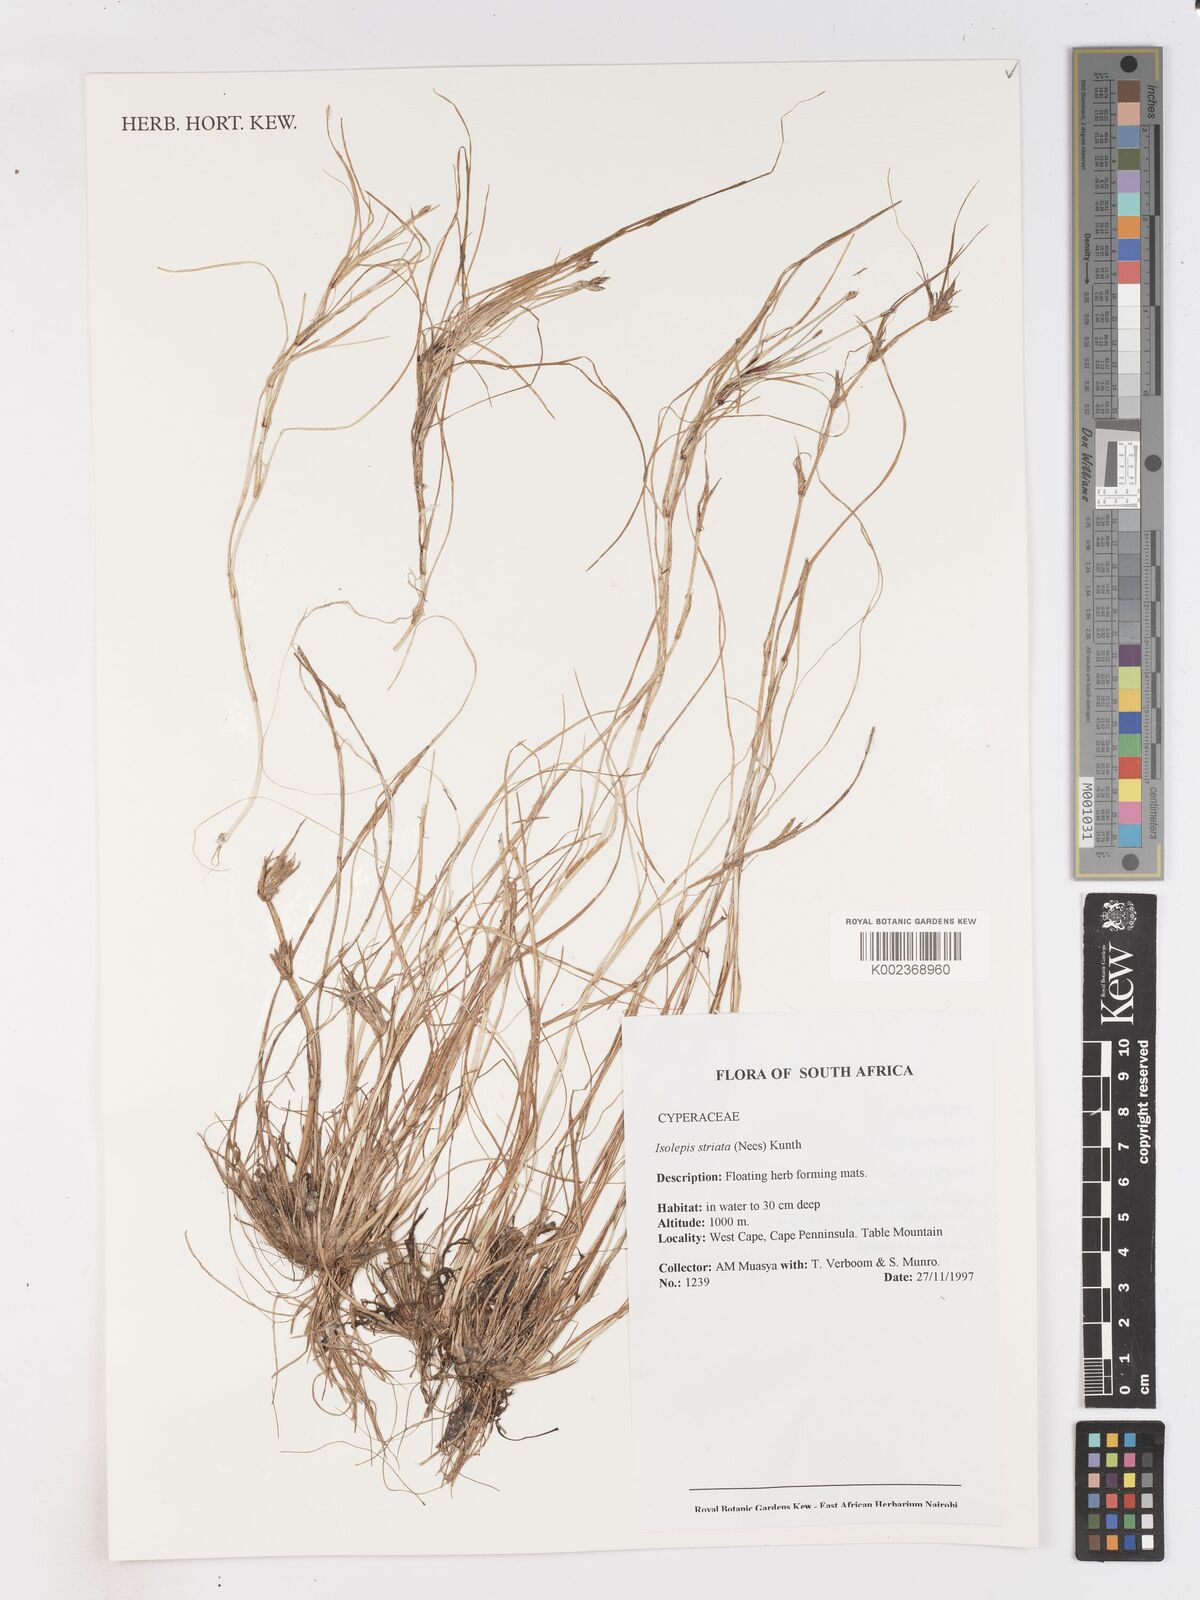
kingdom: Plantae
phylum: Tracheophyta
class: Liliopsida
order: Poales
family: Cyperaceae
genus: Isolepis
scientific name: Isolepis striata
